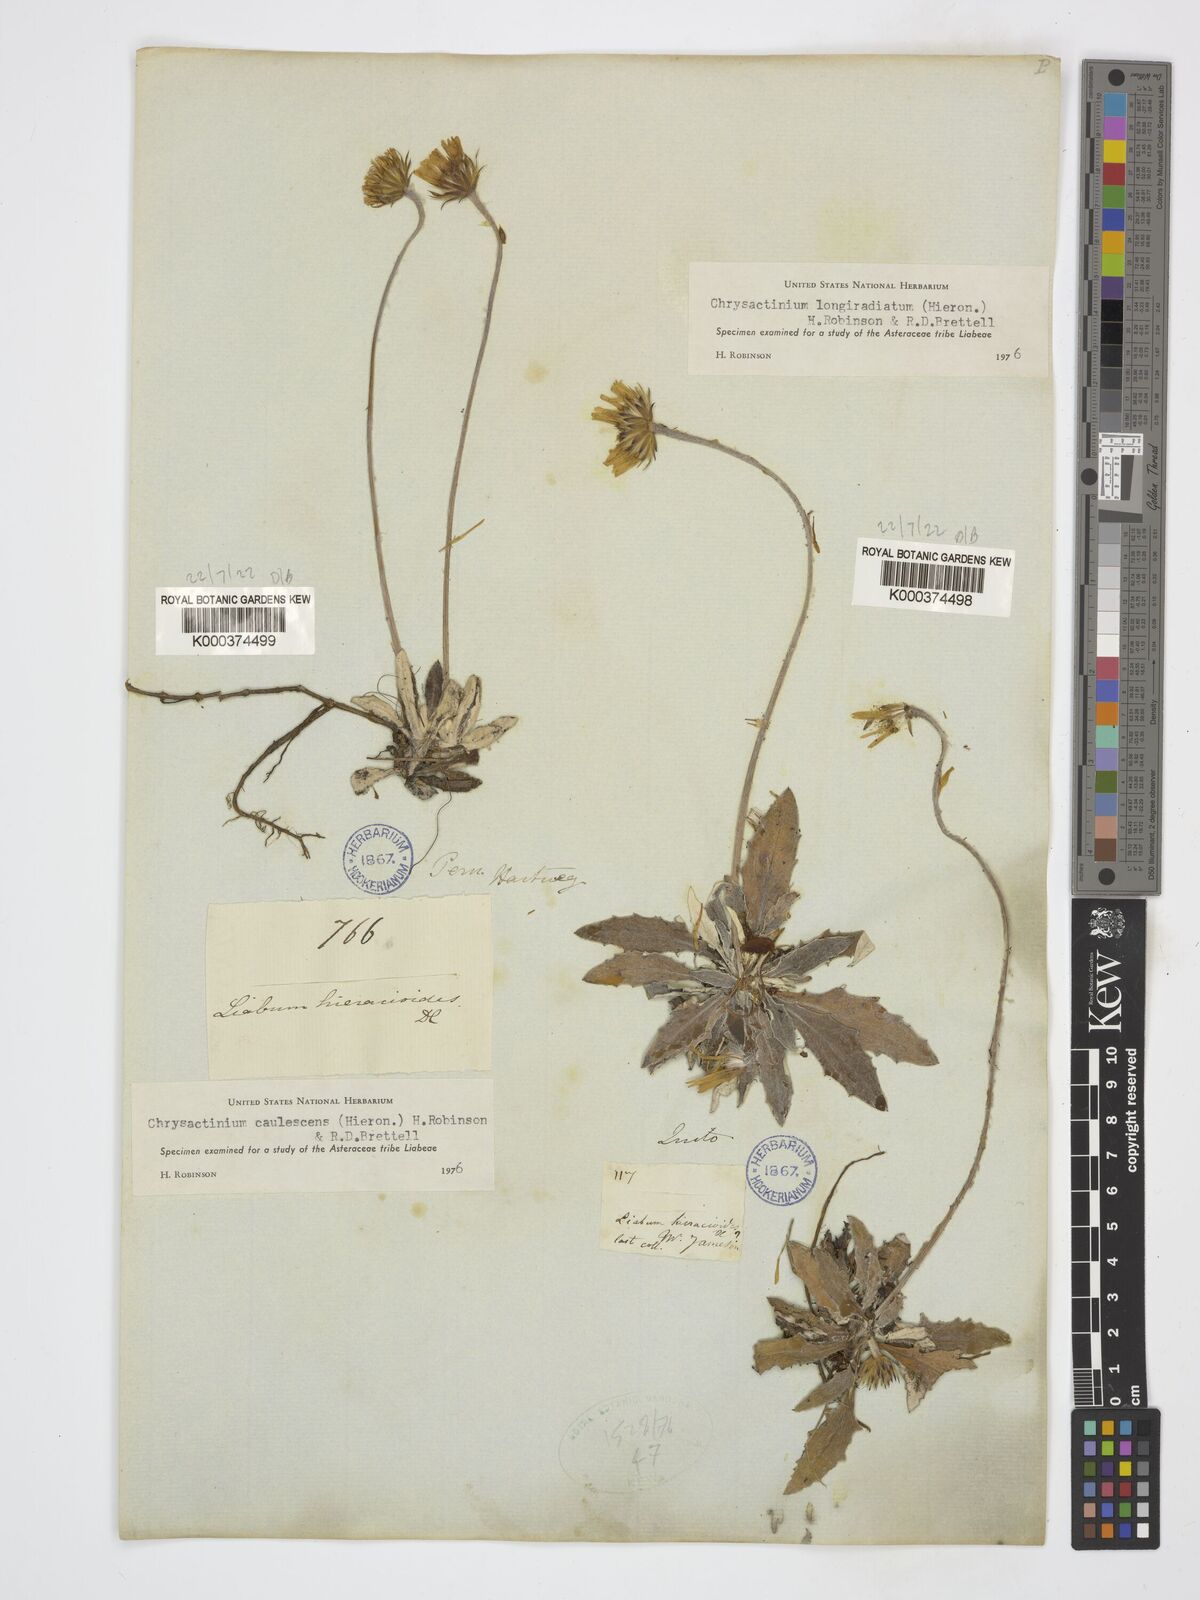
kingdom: Plantae
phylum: Tracheophyta
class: Magnoliopsida
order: Asterales
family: Asteraceae
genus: Chrysactinium
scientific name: Chrysactinium caulescens
